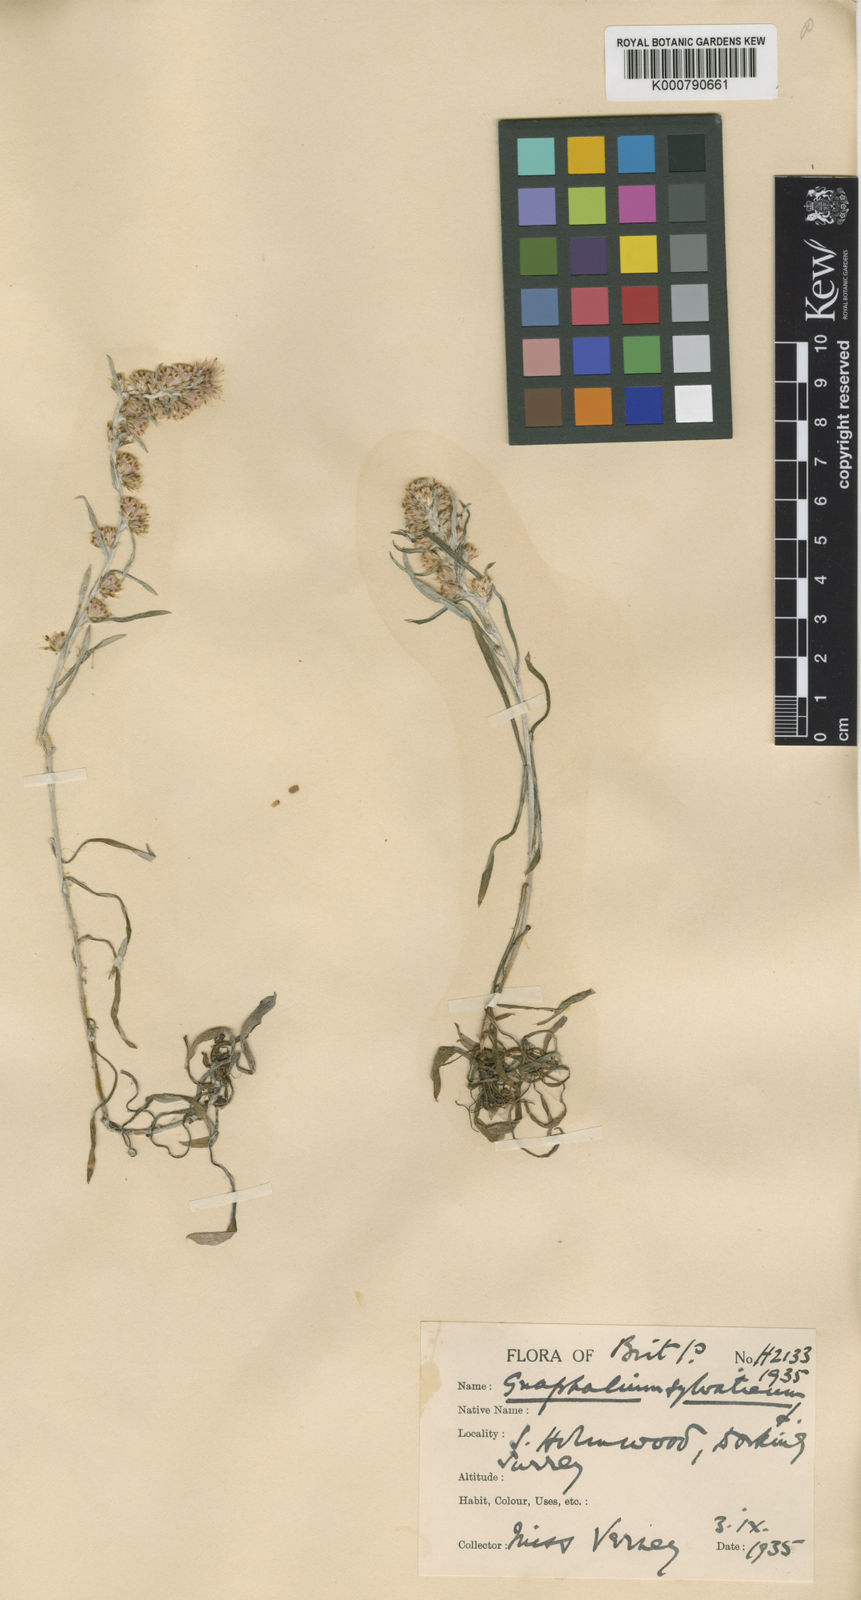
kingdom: Plantae
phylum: Tracheophyta
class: Magnoliopsida
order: Asterales
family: Asteraceae
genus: Omalotheca
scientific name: Omalotheca sylvatica
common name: Heath cudweed
